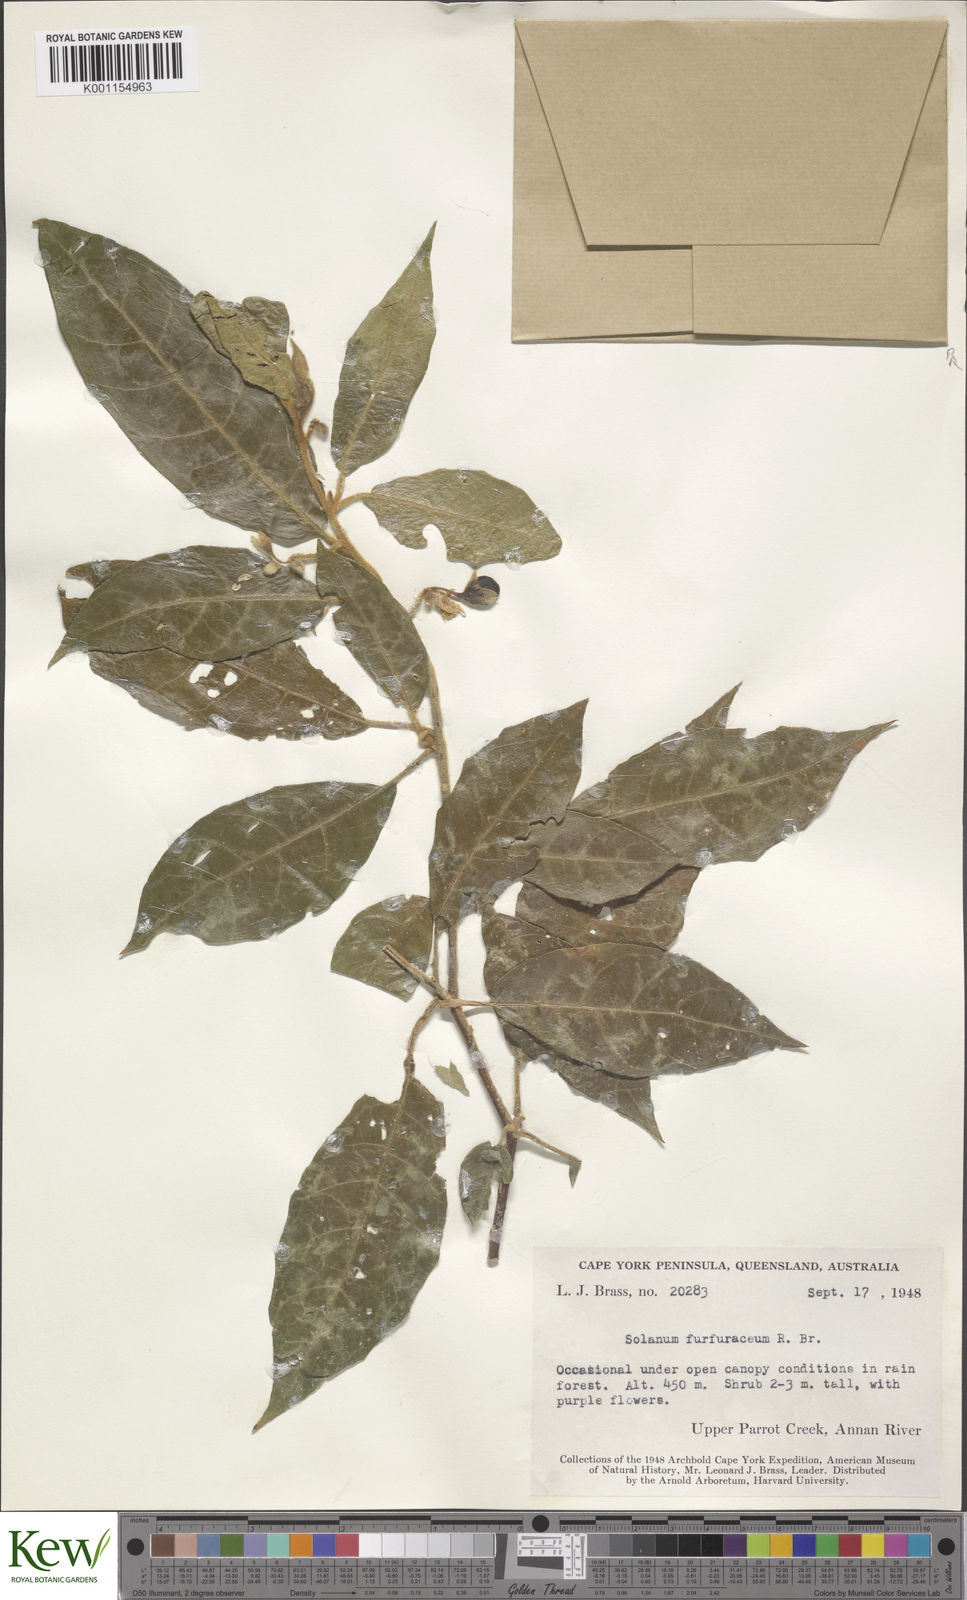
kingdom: Plantae
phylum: Tracheophyta
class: Magnoliopsida
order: Solanales
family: Solanaceae
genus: Solanum
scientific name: Solanum furfuraceum
